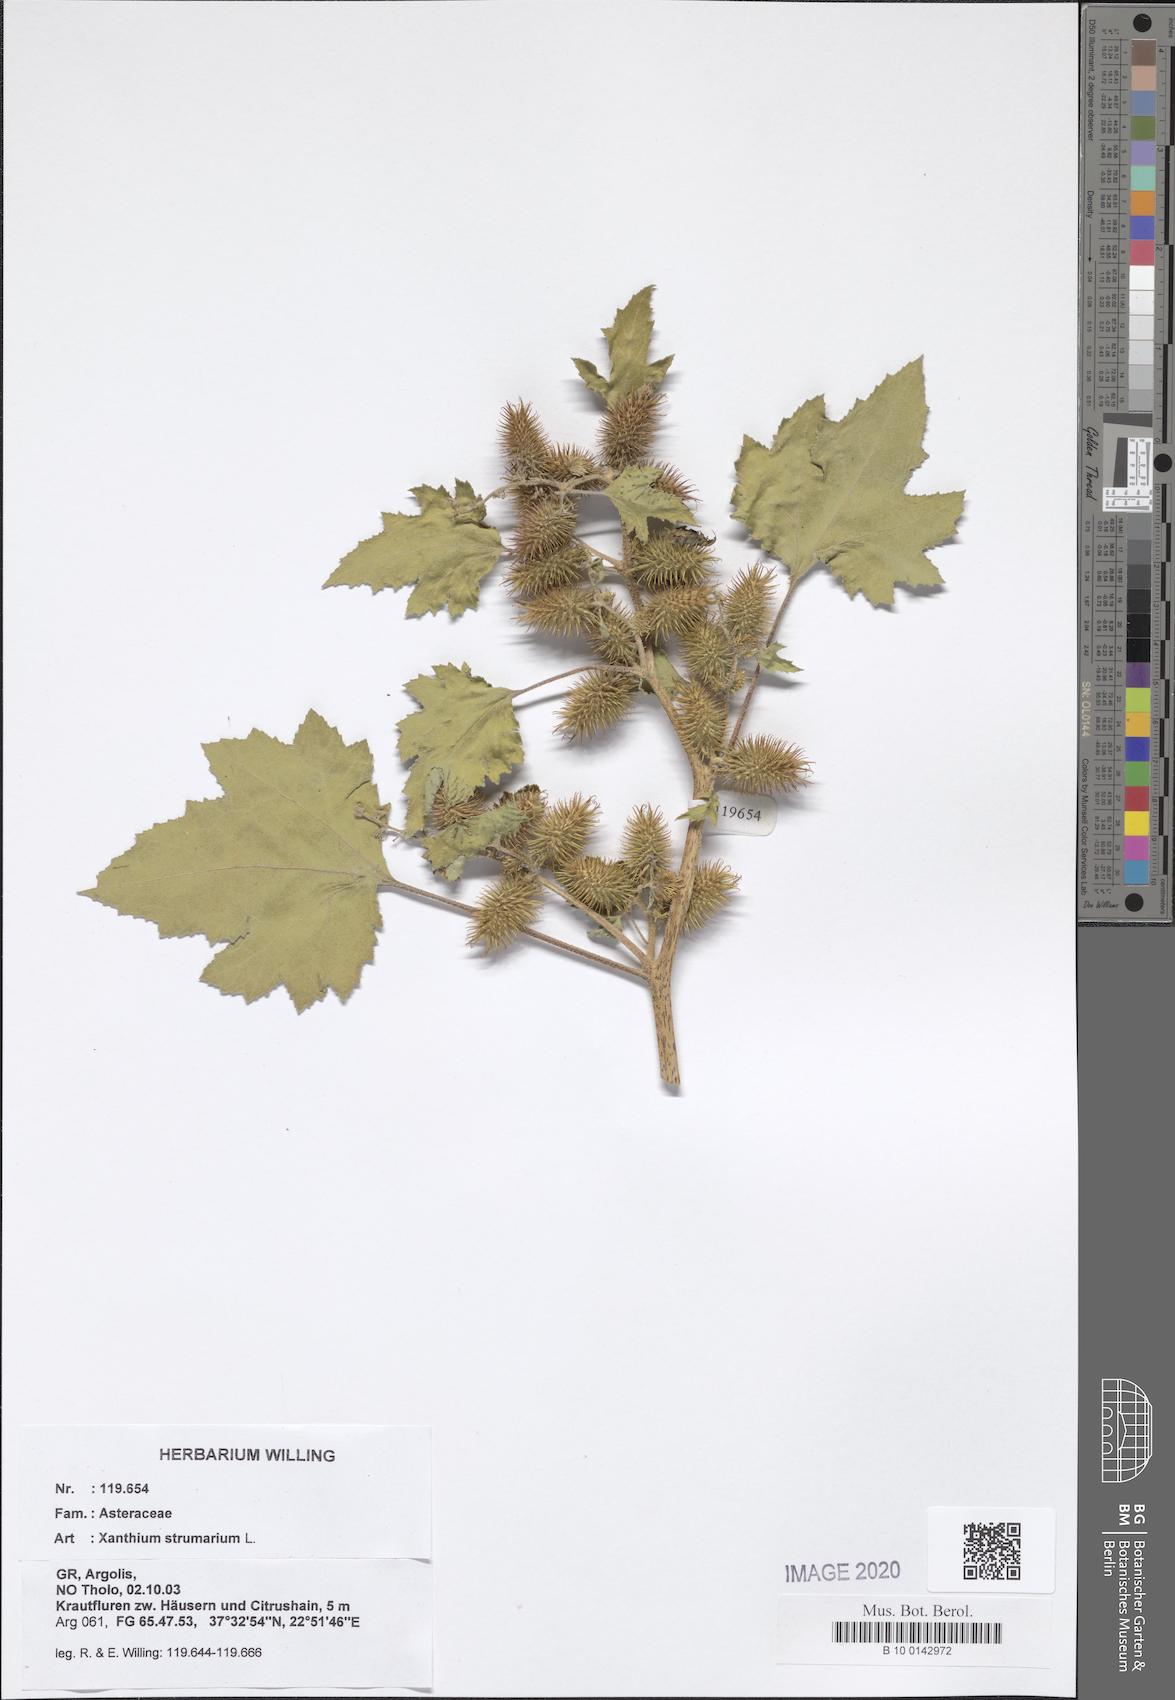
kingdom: Plantae
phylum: Tracheophyta
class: Magnoliopsida
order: Asterales
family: Asteraceae
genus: Xanthium
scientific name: Xanthium strumarium
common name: Rough cocklebur
